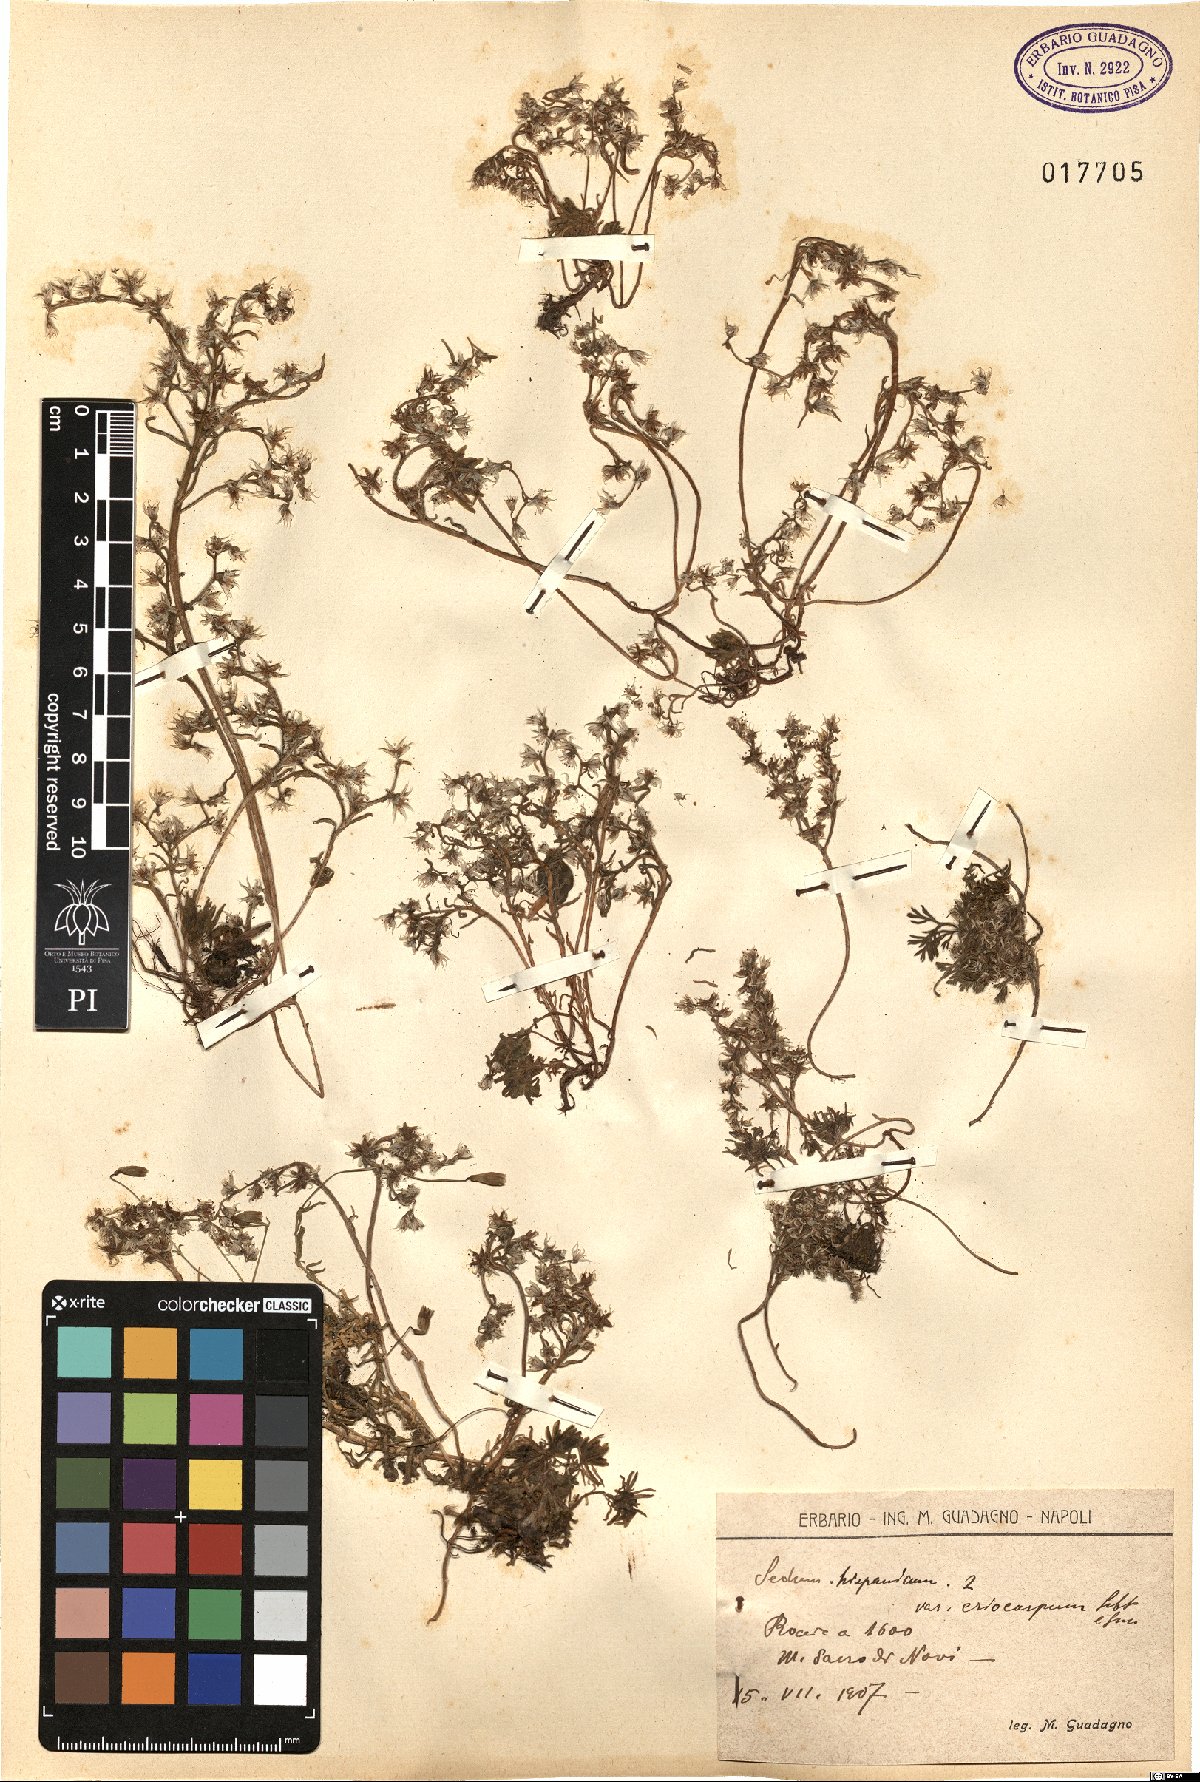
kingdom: Plantae
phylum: Tracheophyta
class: Magnoliopsida
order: Saxifragales
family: Crassulaceae
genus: Sedum
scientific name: Sedum hispanicum
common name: Spanish stonecrop
